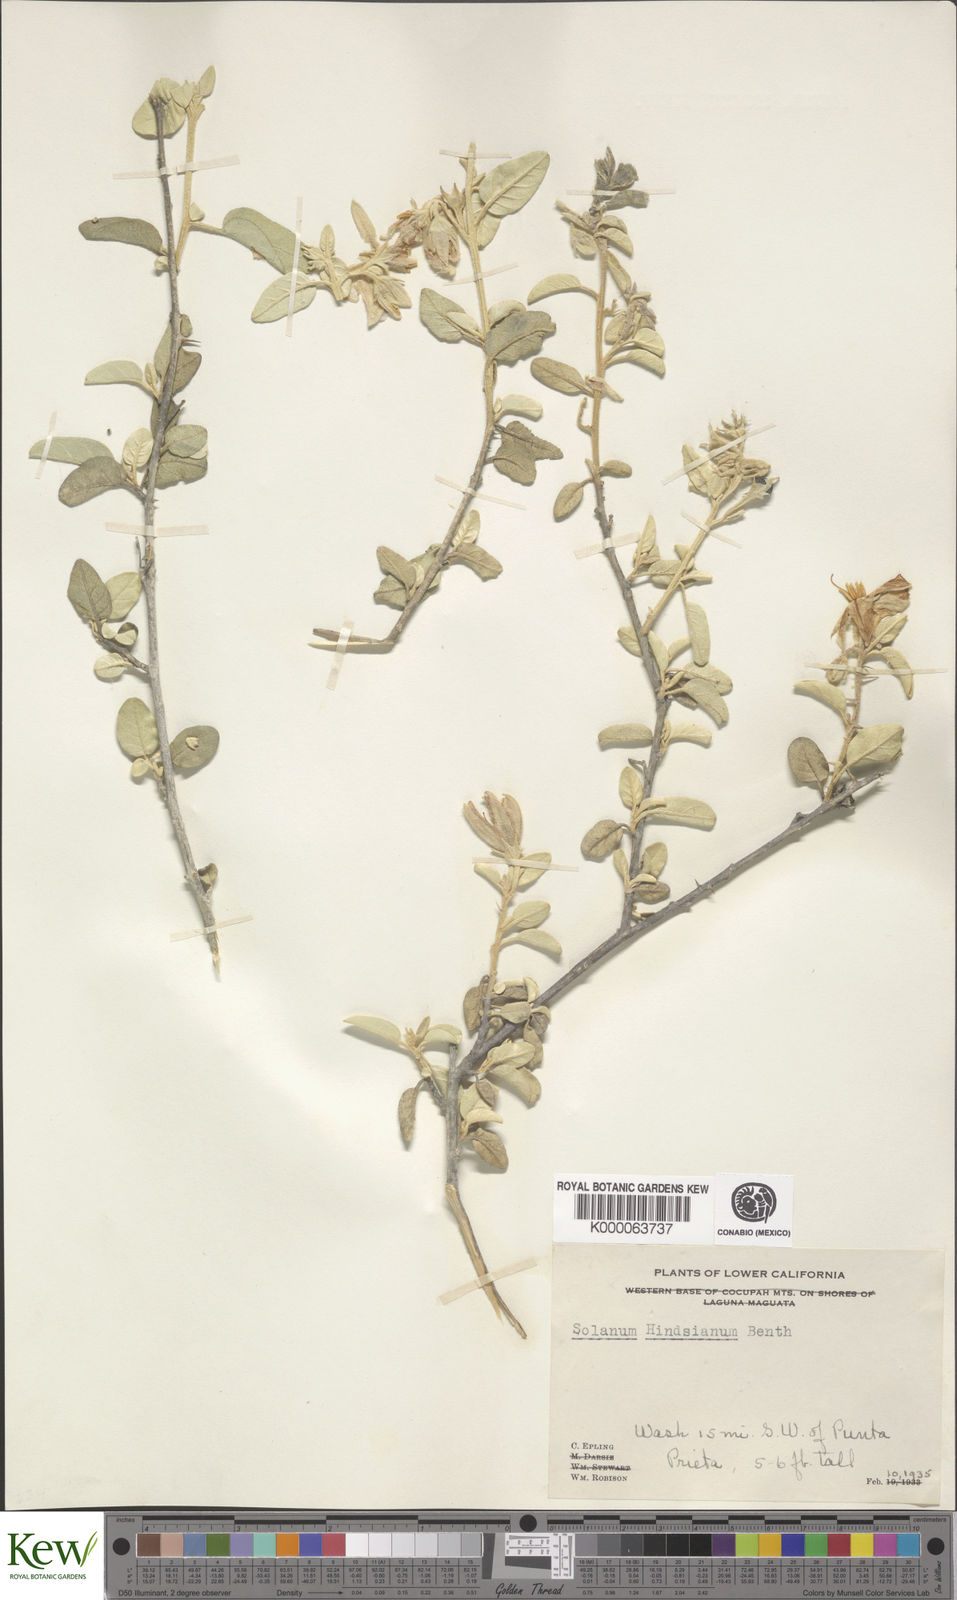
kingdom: Plantae
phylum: Tracheophyta
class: Magnoliopsida
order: Solanales
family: Solanaceae
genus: Solanum
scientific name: Solanum hindsianum
